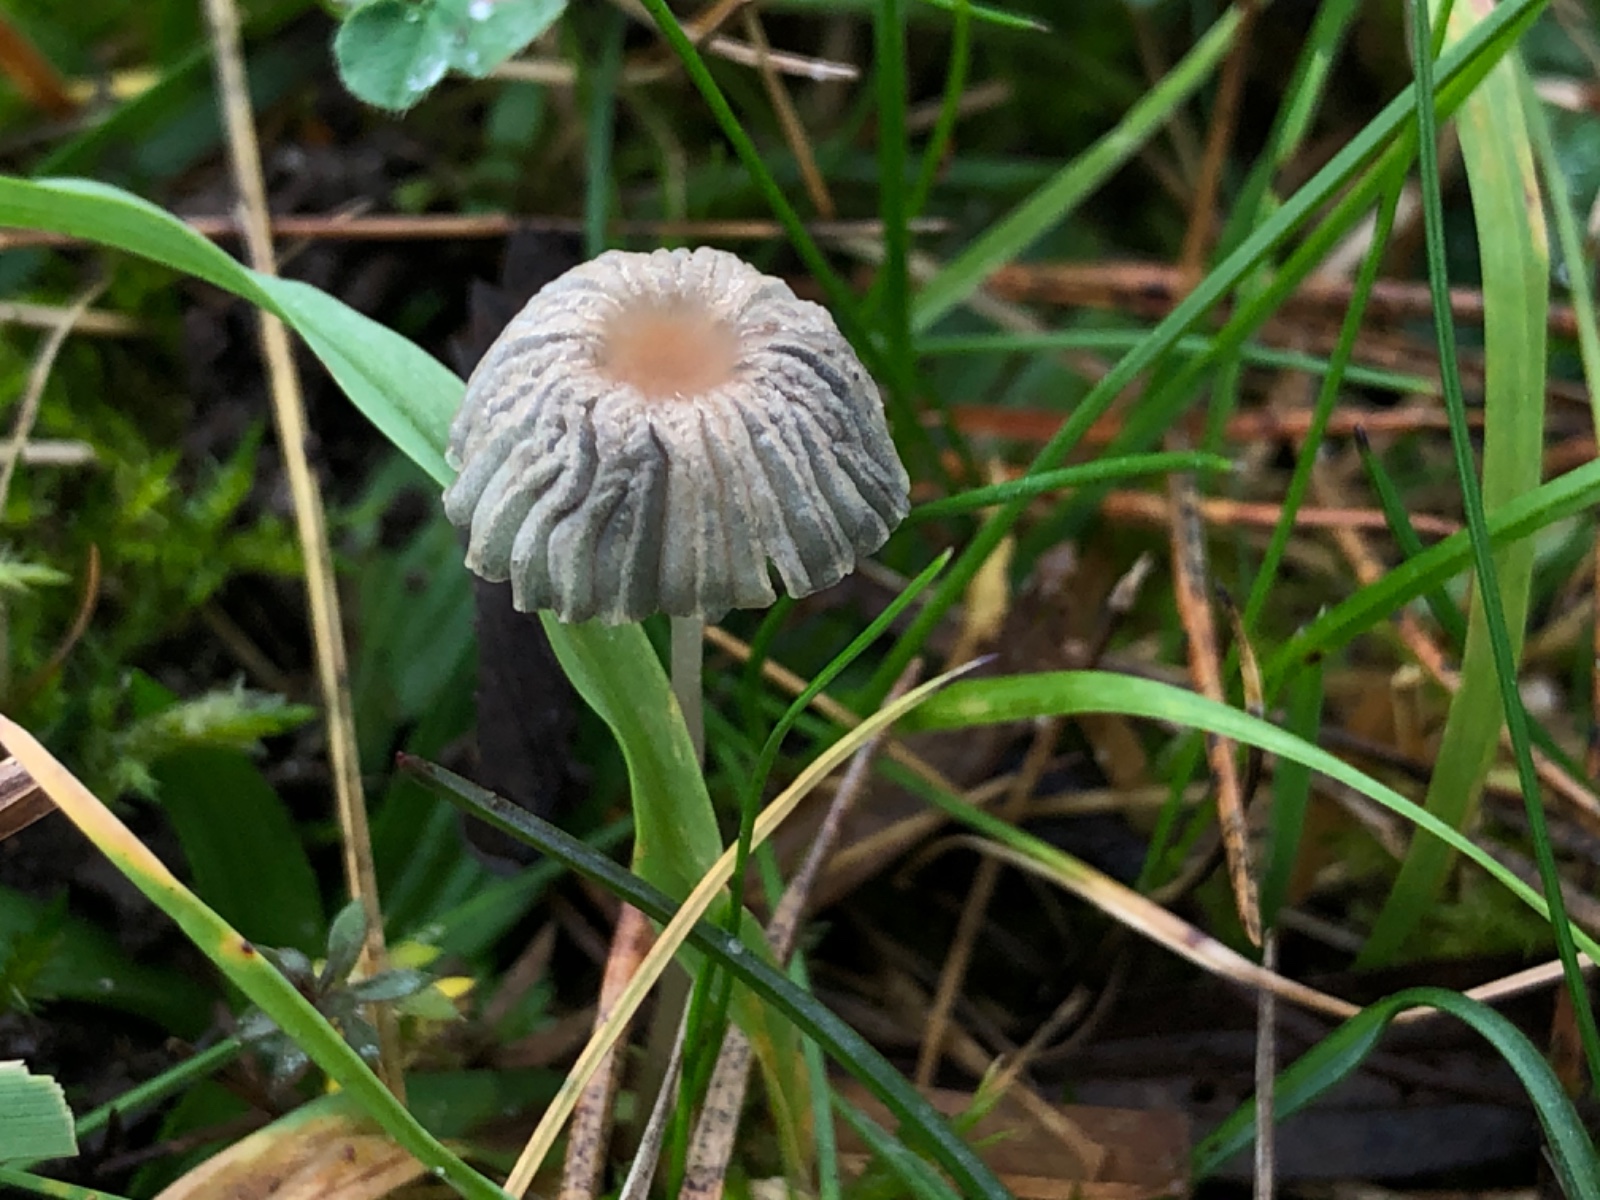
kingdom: Fungi
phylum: Basidiomycota
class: Agaricomycetes
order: Agaricales
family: Psathyrellaceae
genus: Parasola
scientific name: Parasola
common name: hjulhat
